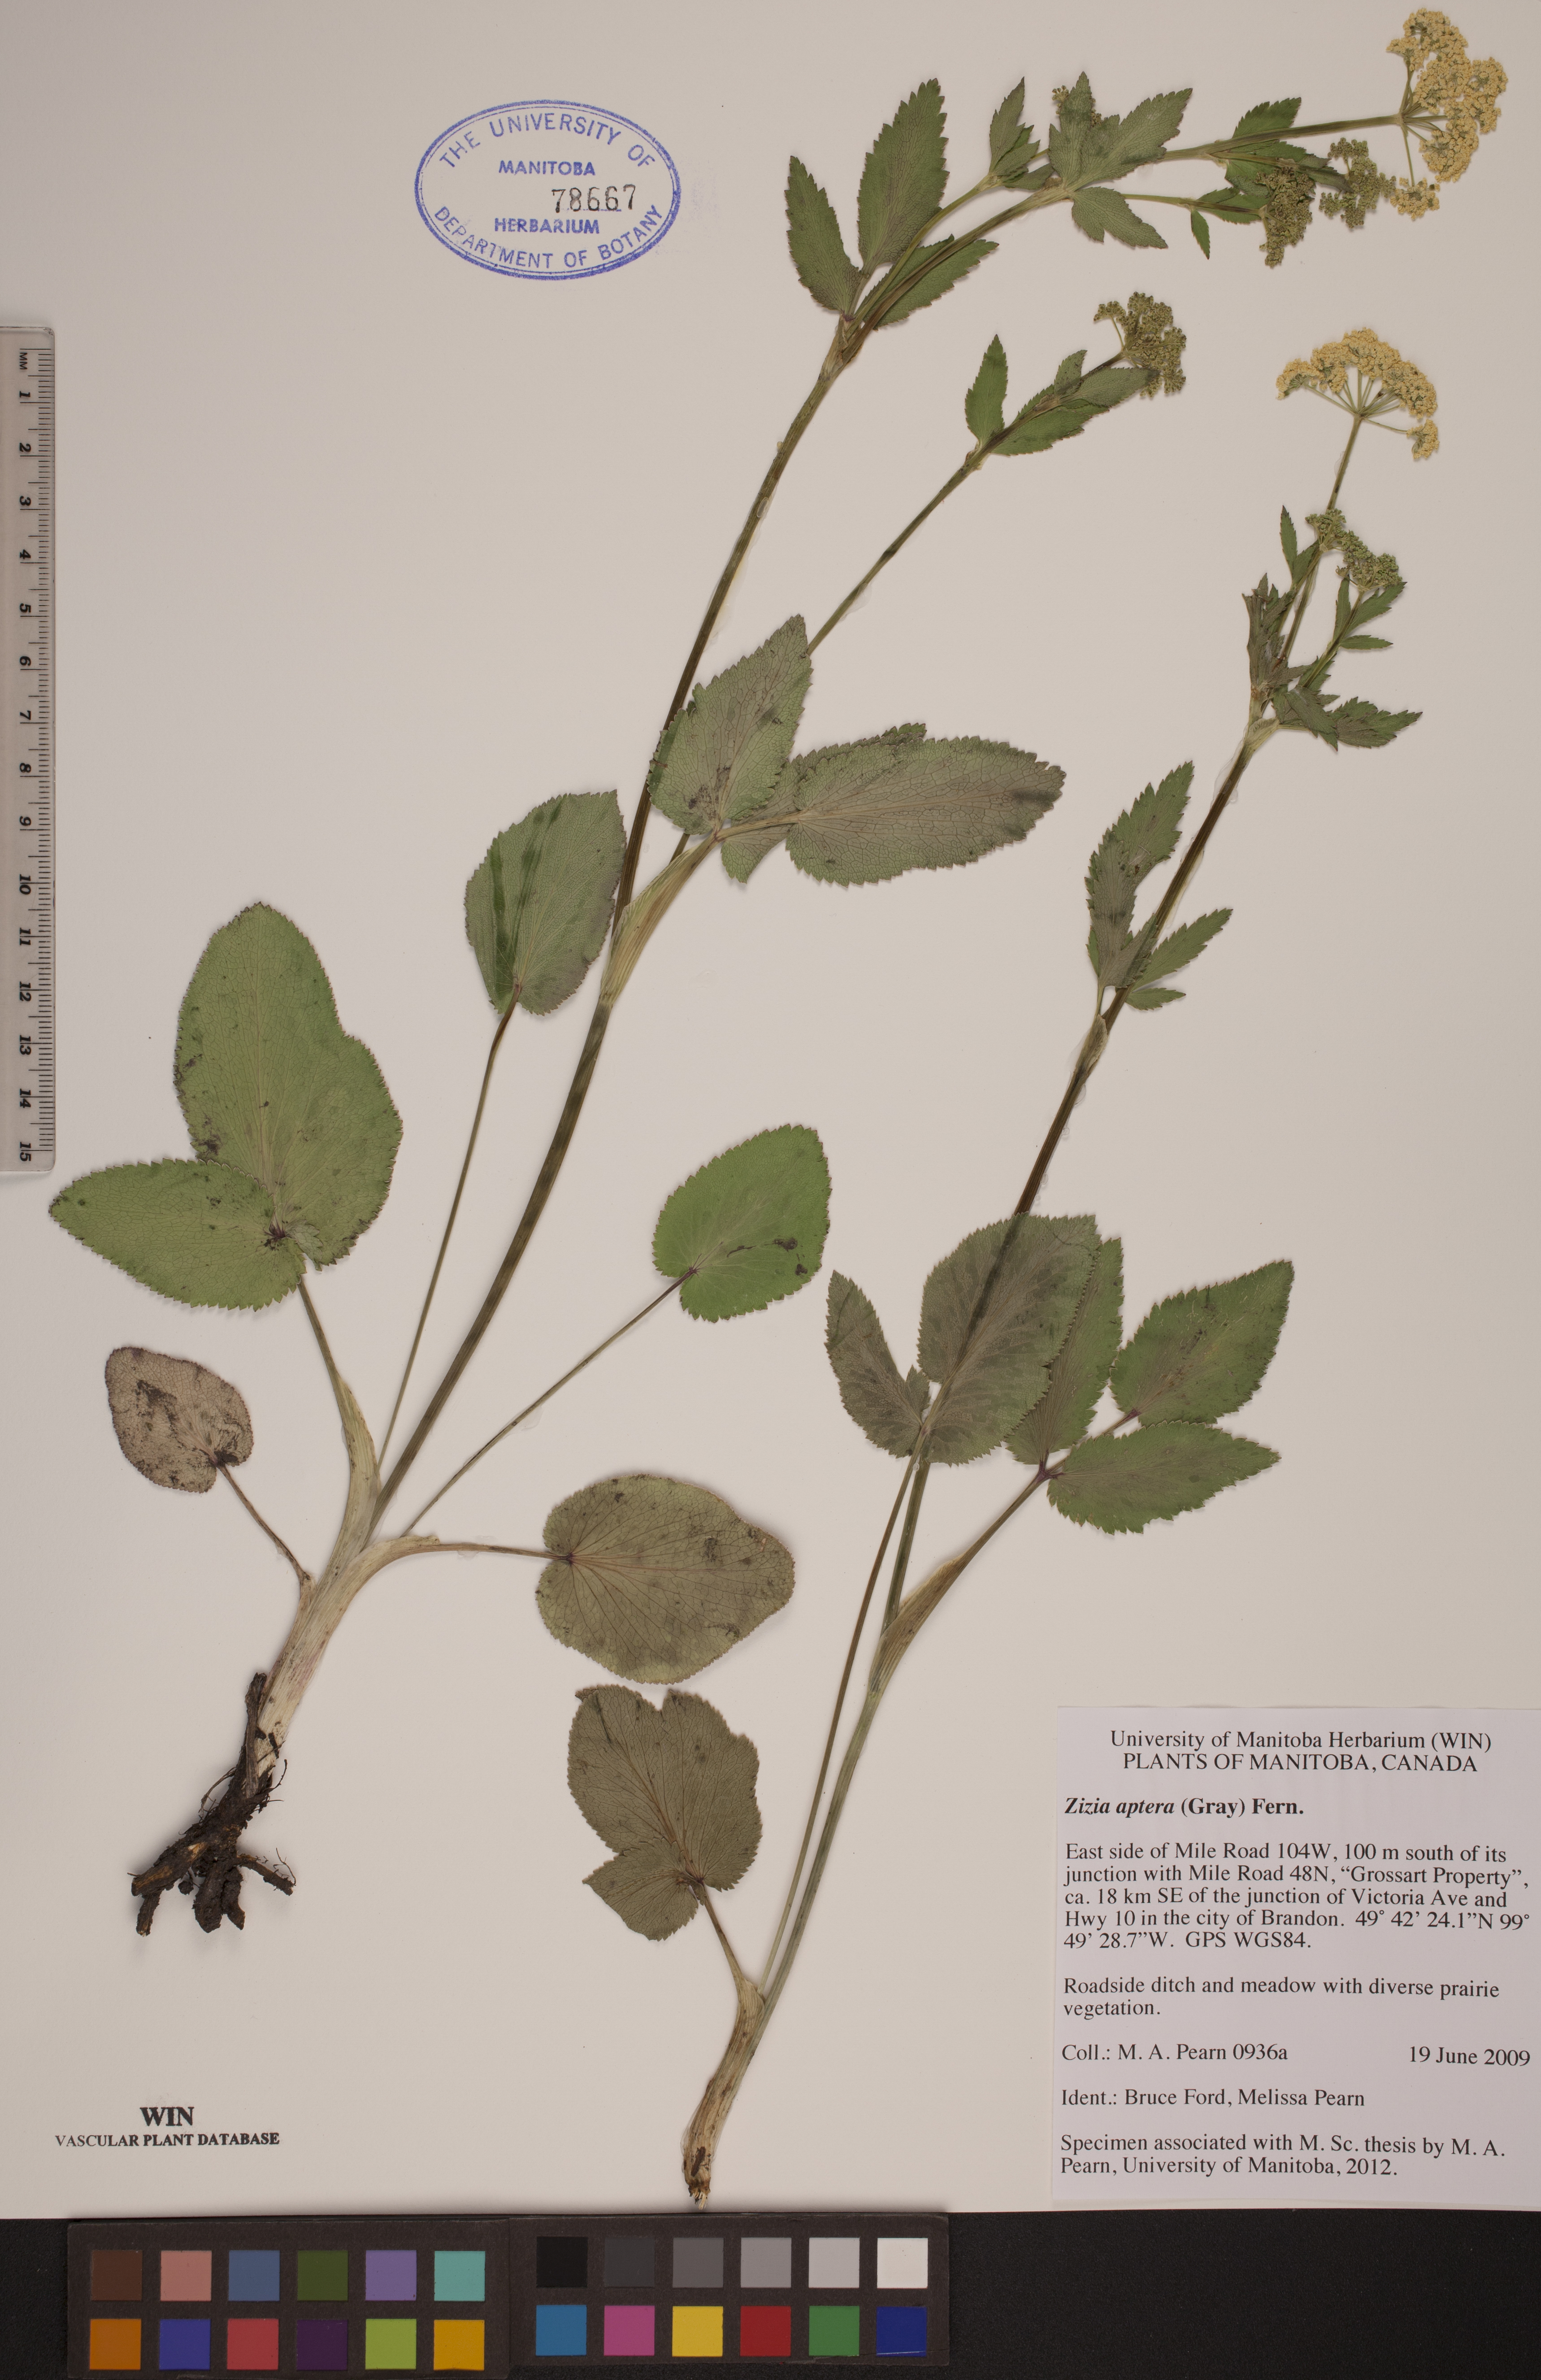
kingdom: Plantae
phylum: Tracheophyta
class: Magnoliopsida
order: Apiales
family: Apiaceae
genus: Zizia
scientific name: Zizia aptera
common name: Heart-leaved alexanders
